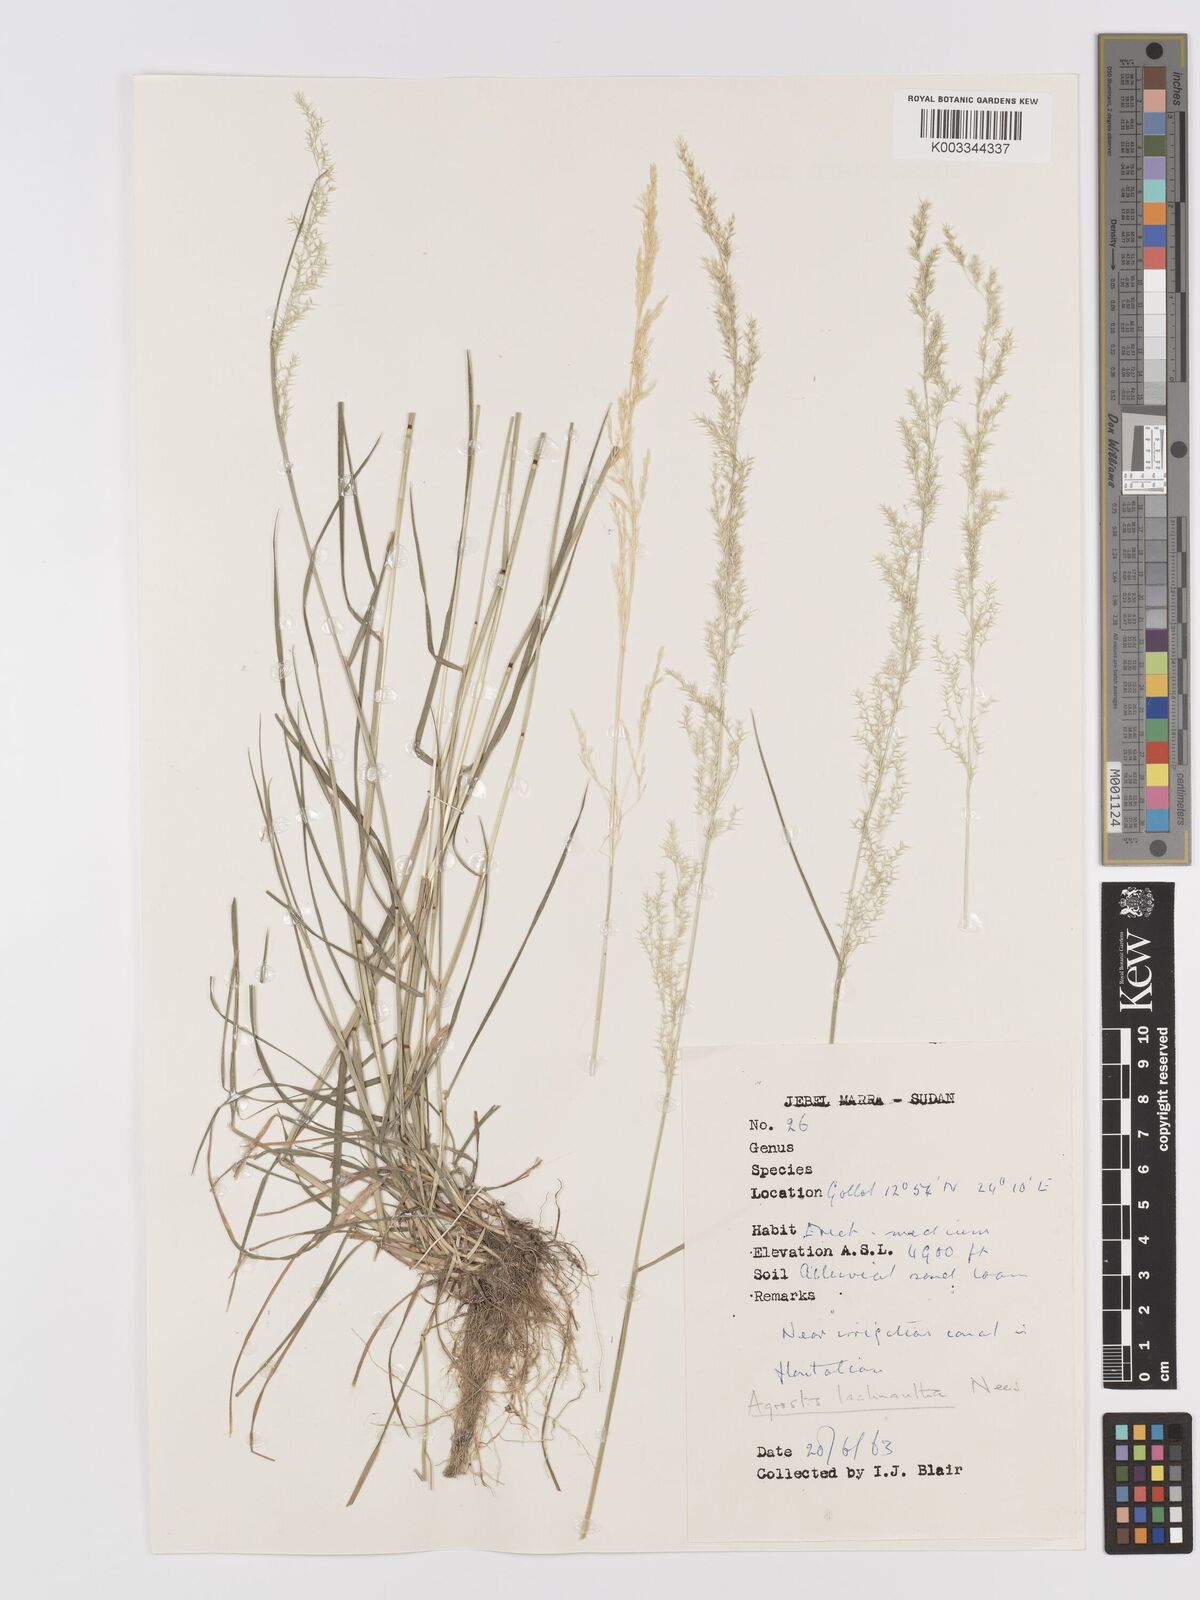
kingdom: Plantae
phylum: Tracheophyta
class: Liliopsida
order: Poales
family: Poaceae
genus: Lachnagrostis
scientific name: Lachnagrostis lachnantha
